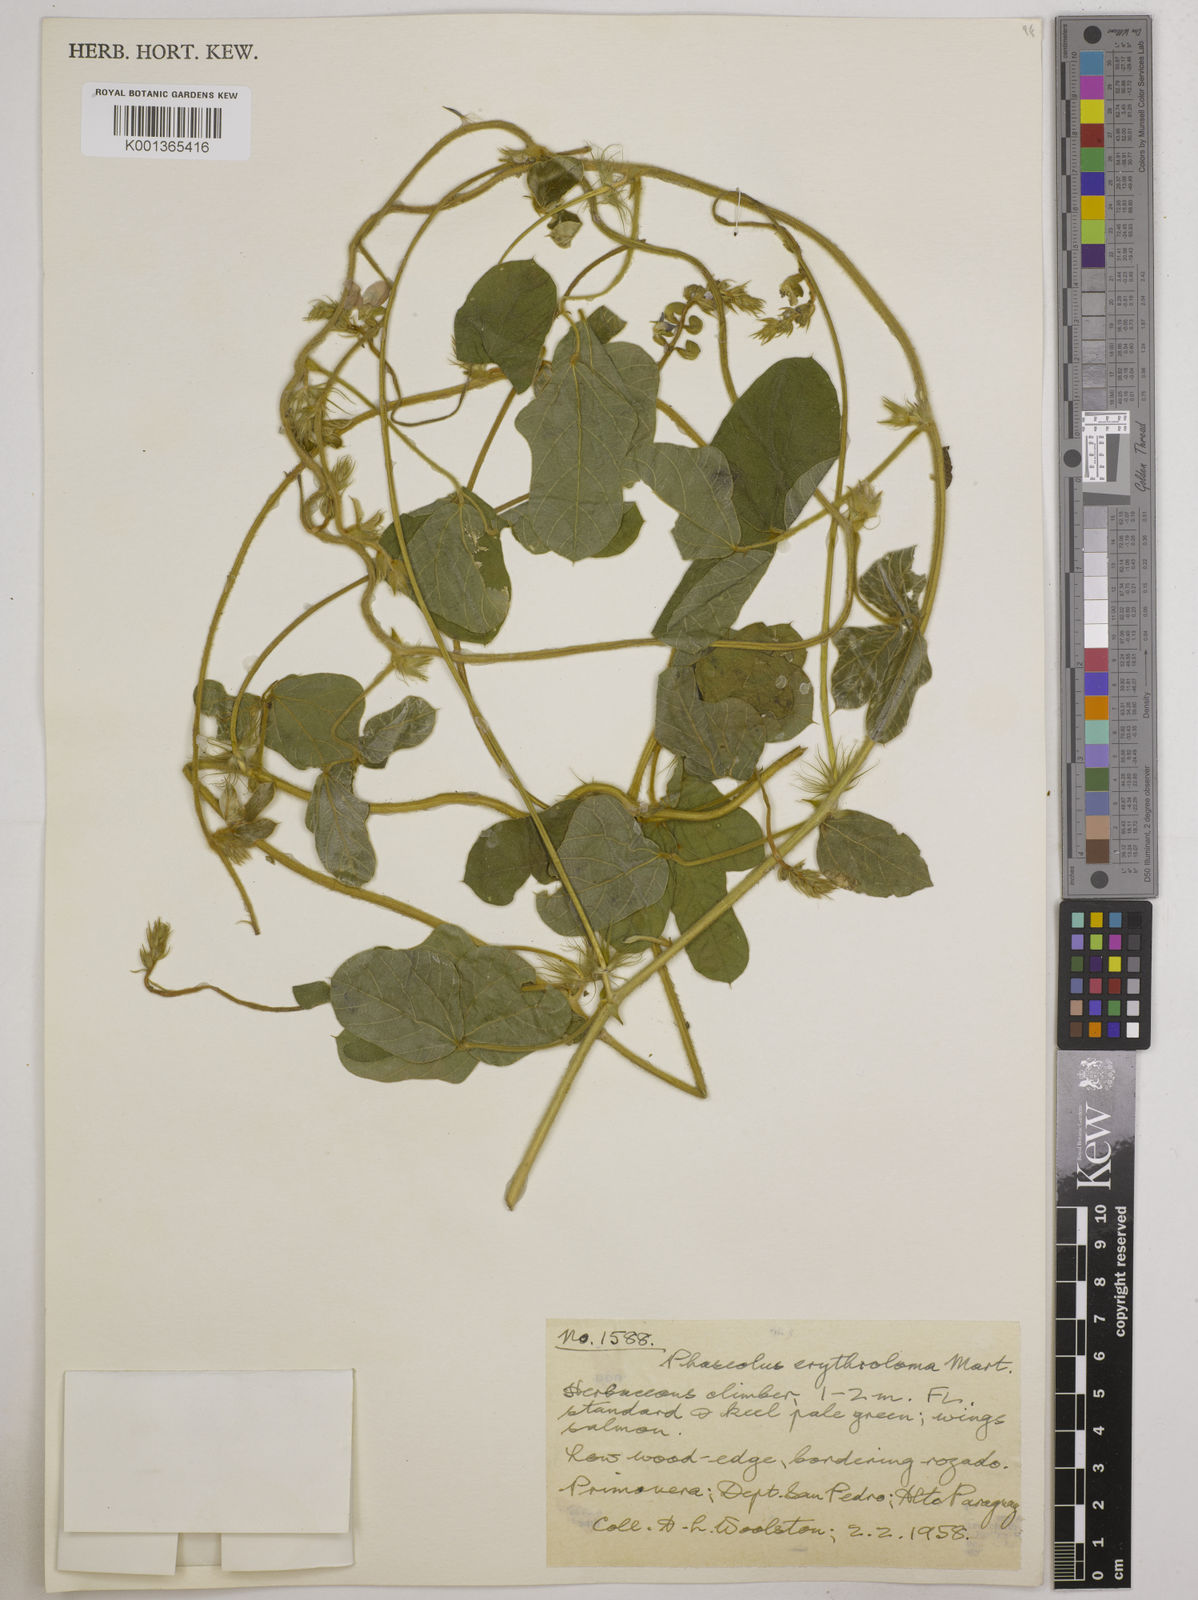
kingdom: Plantae
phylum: Tracheophyta
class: Magnoliopsida
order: Fabales
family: Fabaceae
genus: Macroptilium
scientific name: Macroptilium erythroloma
